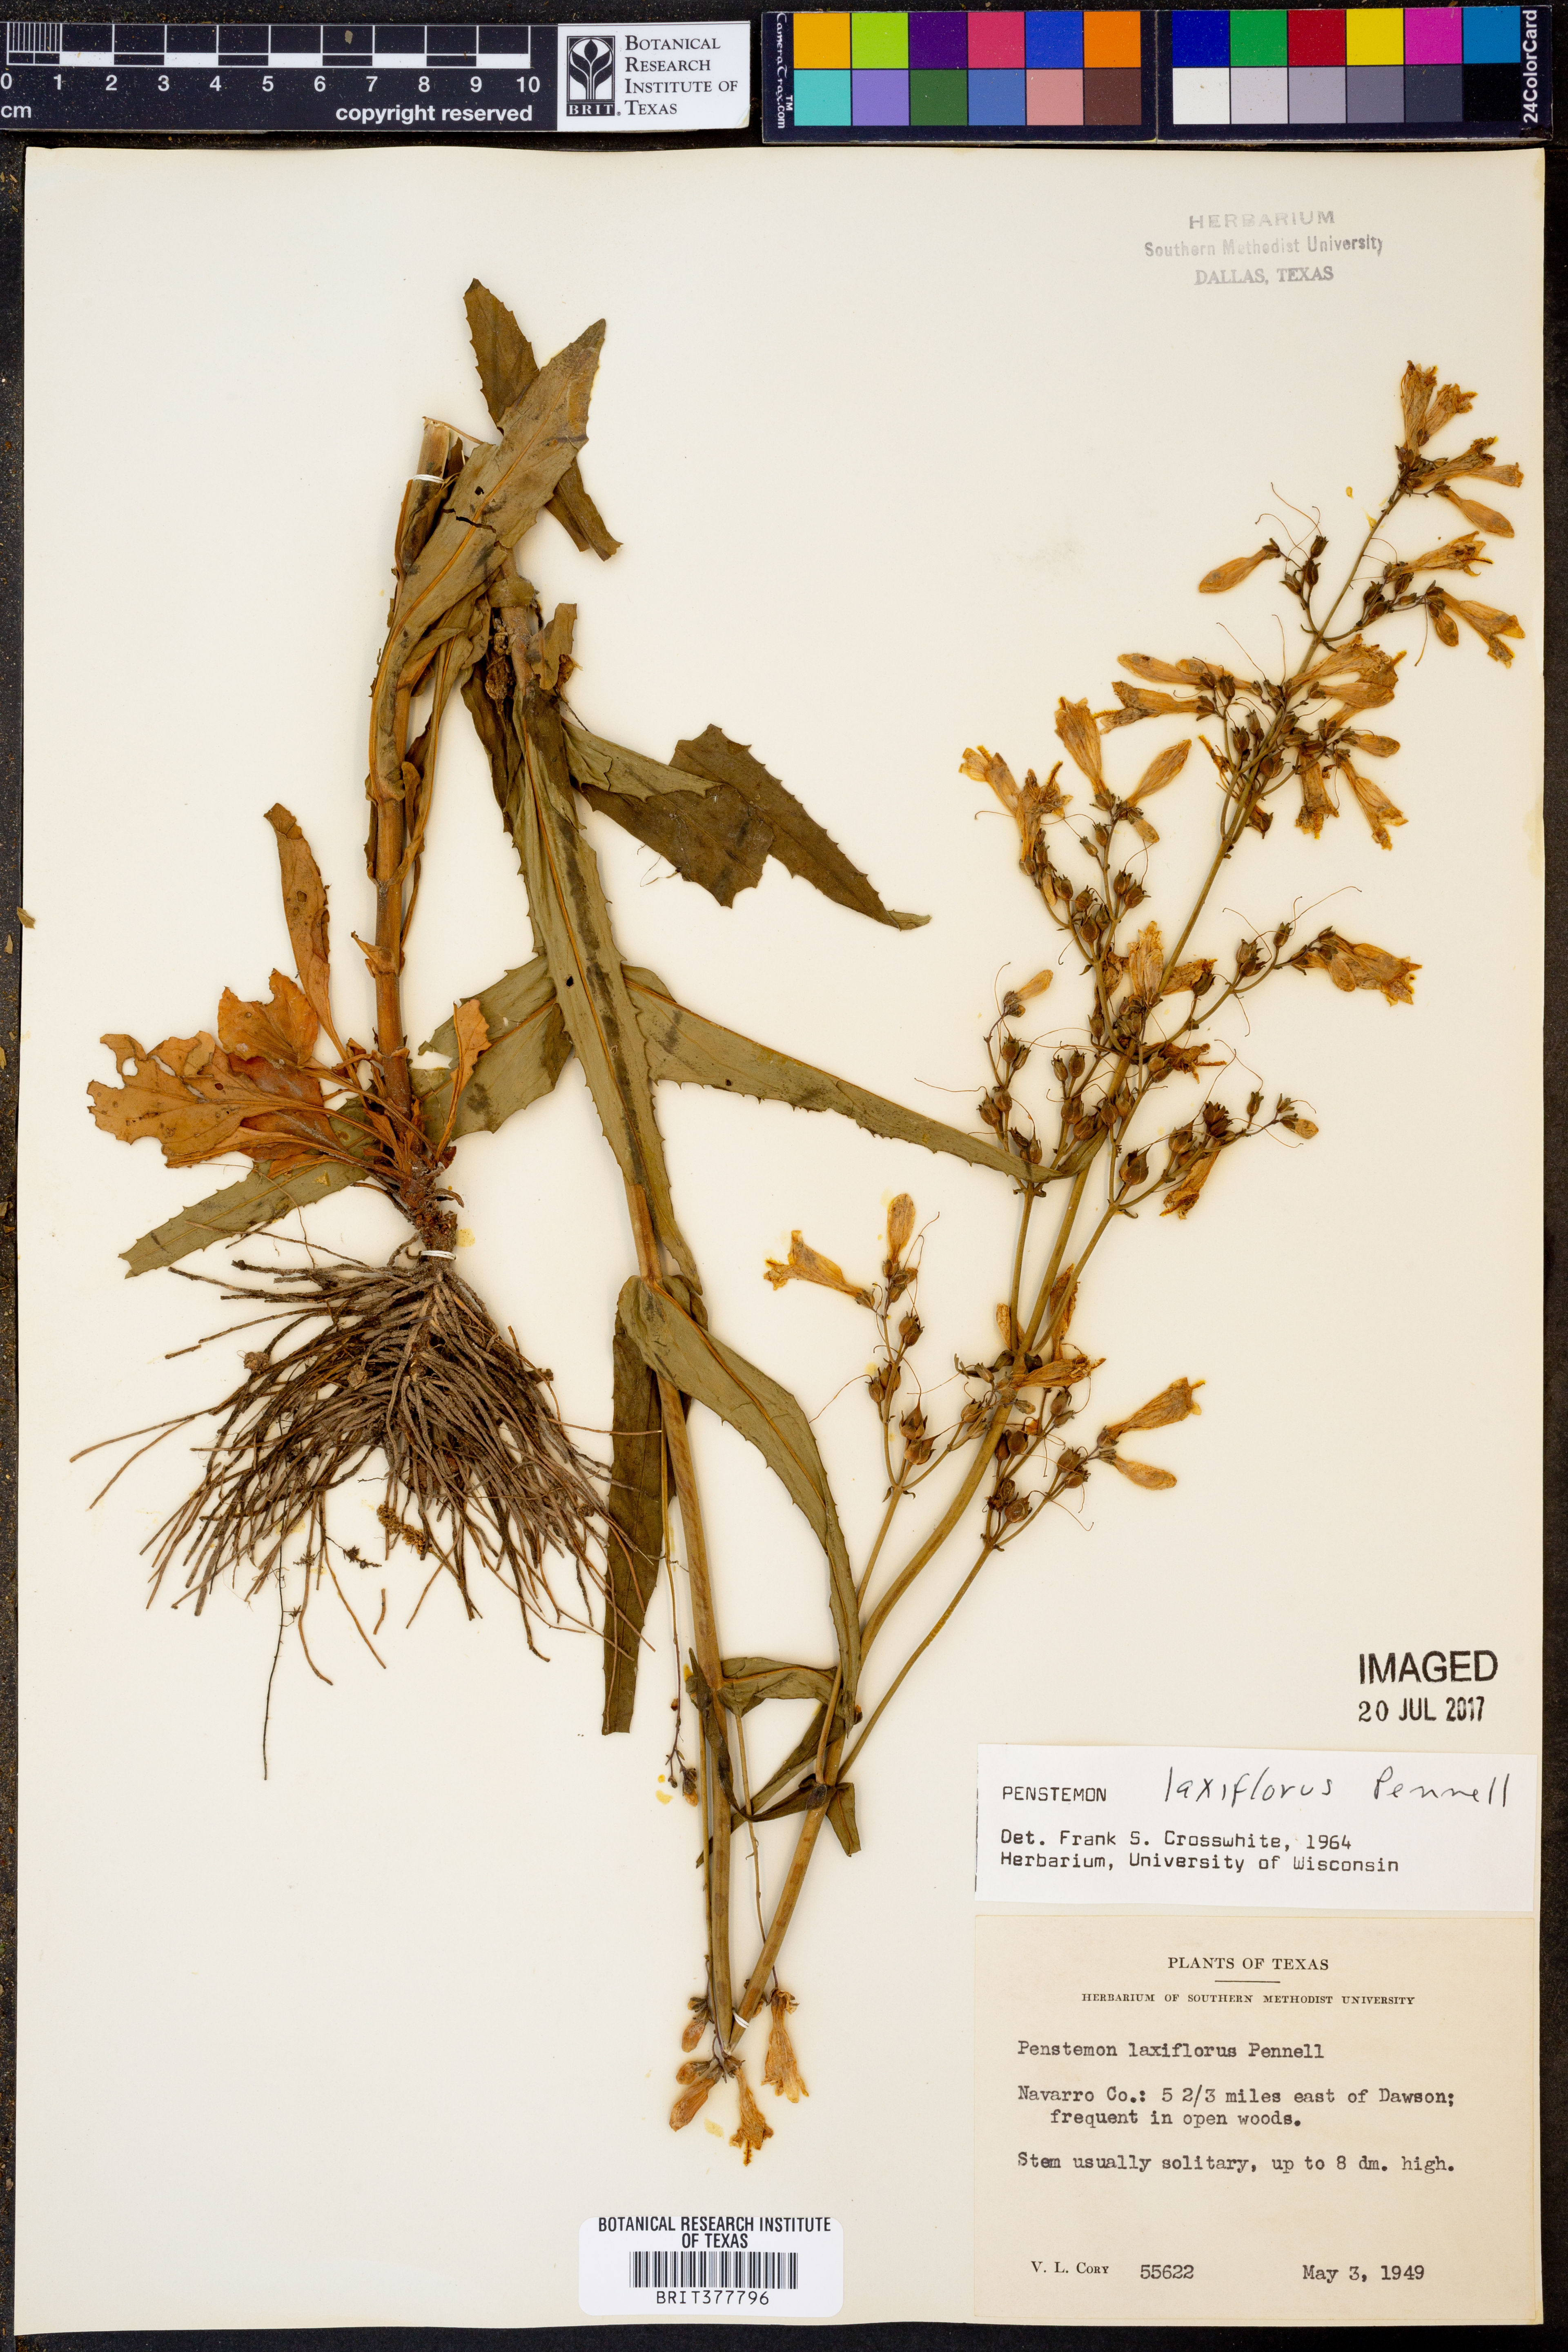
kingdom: Plantae
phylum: Tracheophyta
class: Magnoliopsida
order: Lamiales
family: Plantaginaceae
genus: Penstemon
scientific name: Penstemon laxiflorus
